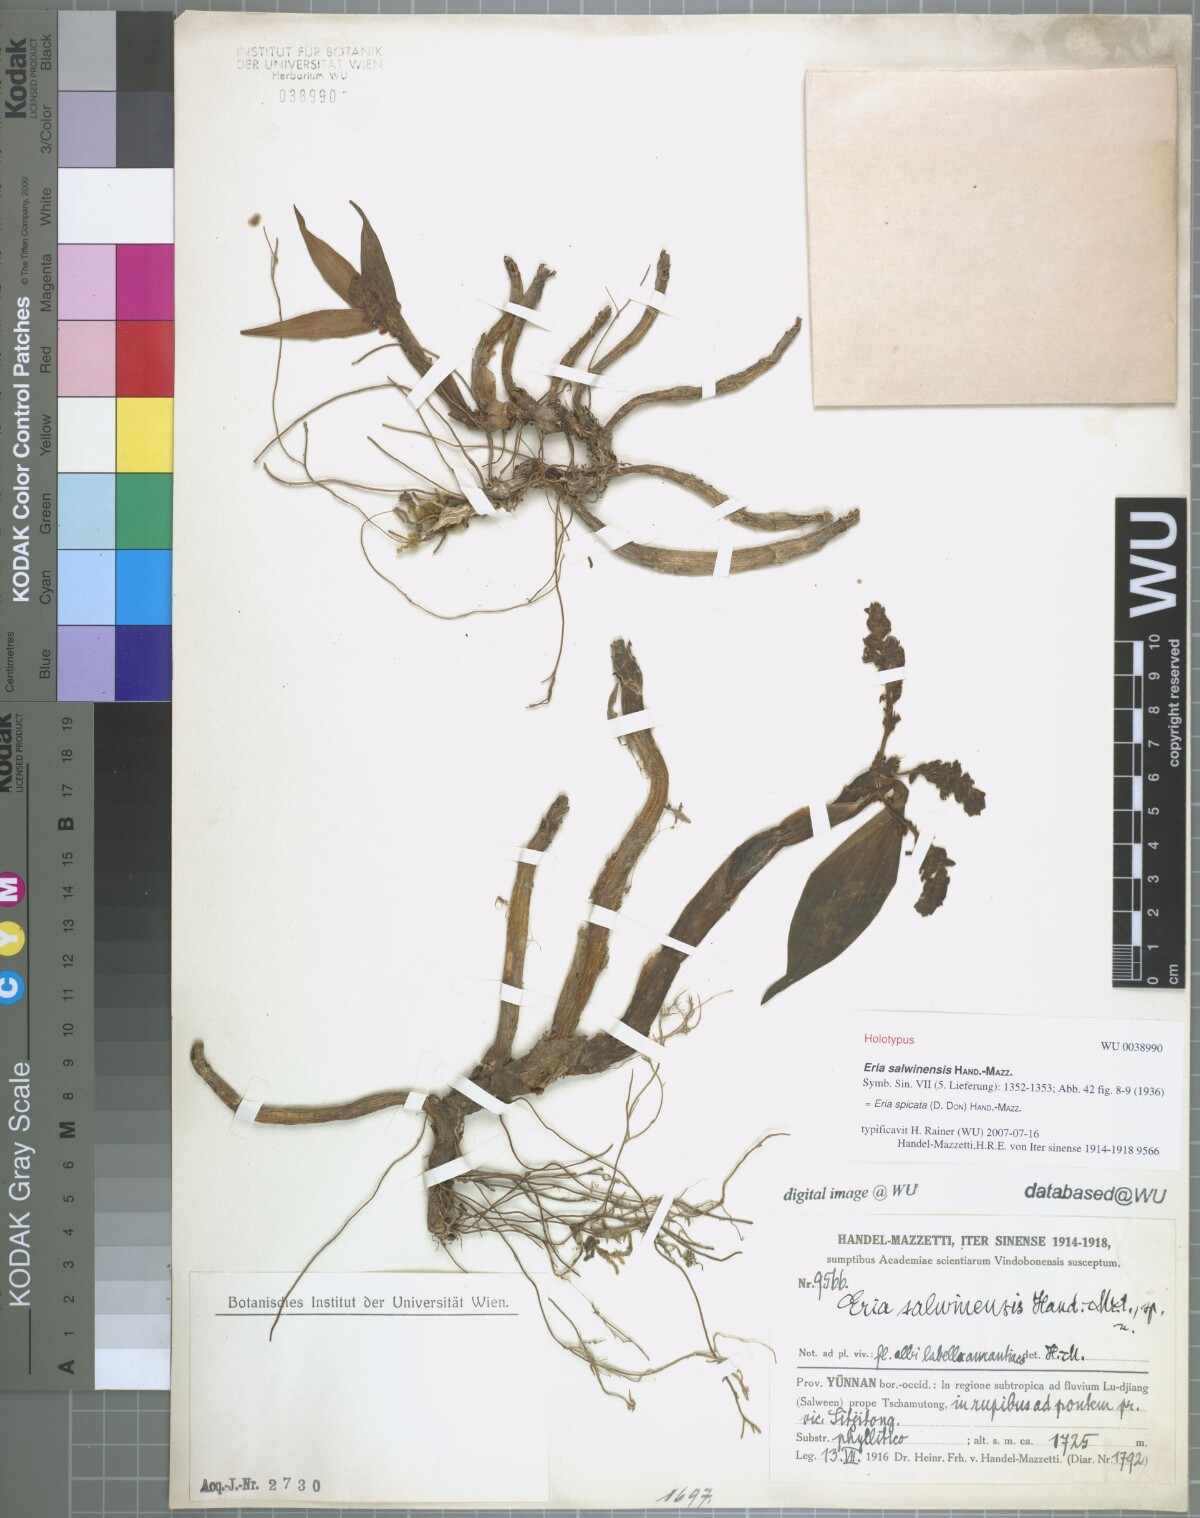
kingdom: Plantae
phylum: Tracheophyta
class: Liliopsida
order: Asparagales
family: Orchidaceae
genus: Pinalia
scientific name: Pinalia spicata
